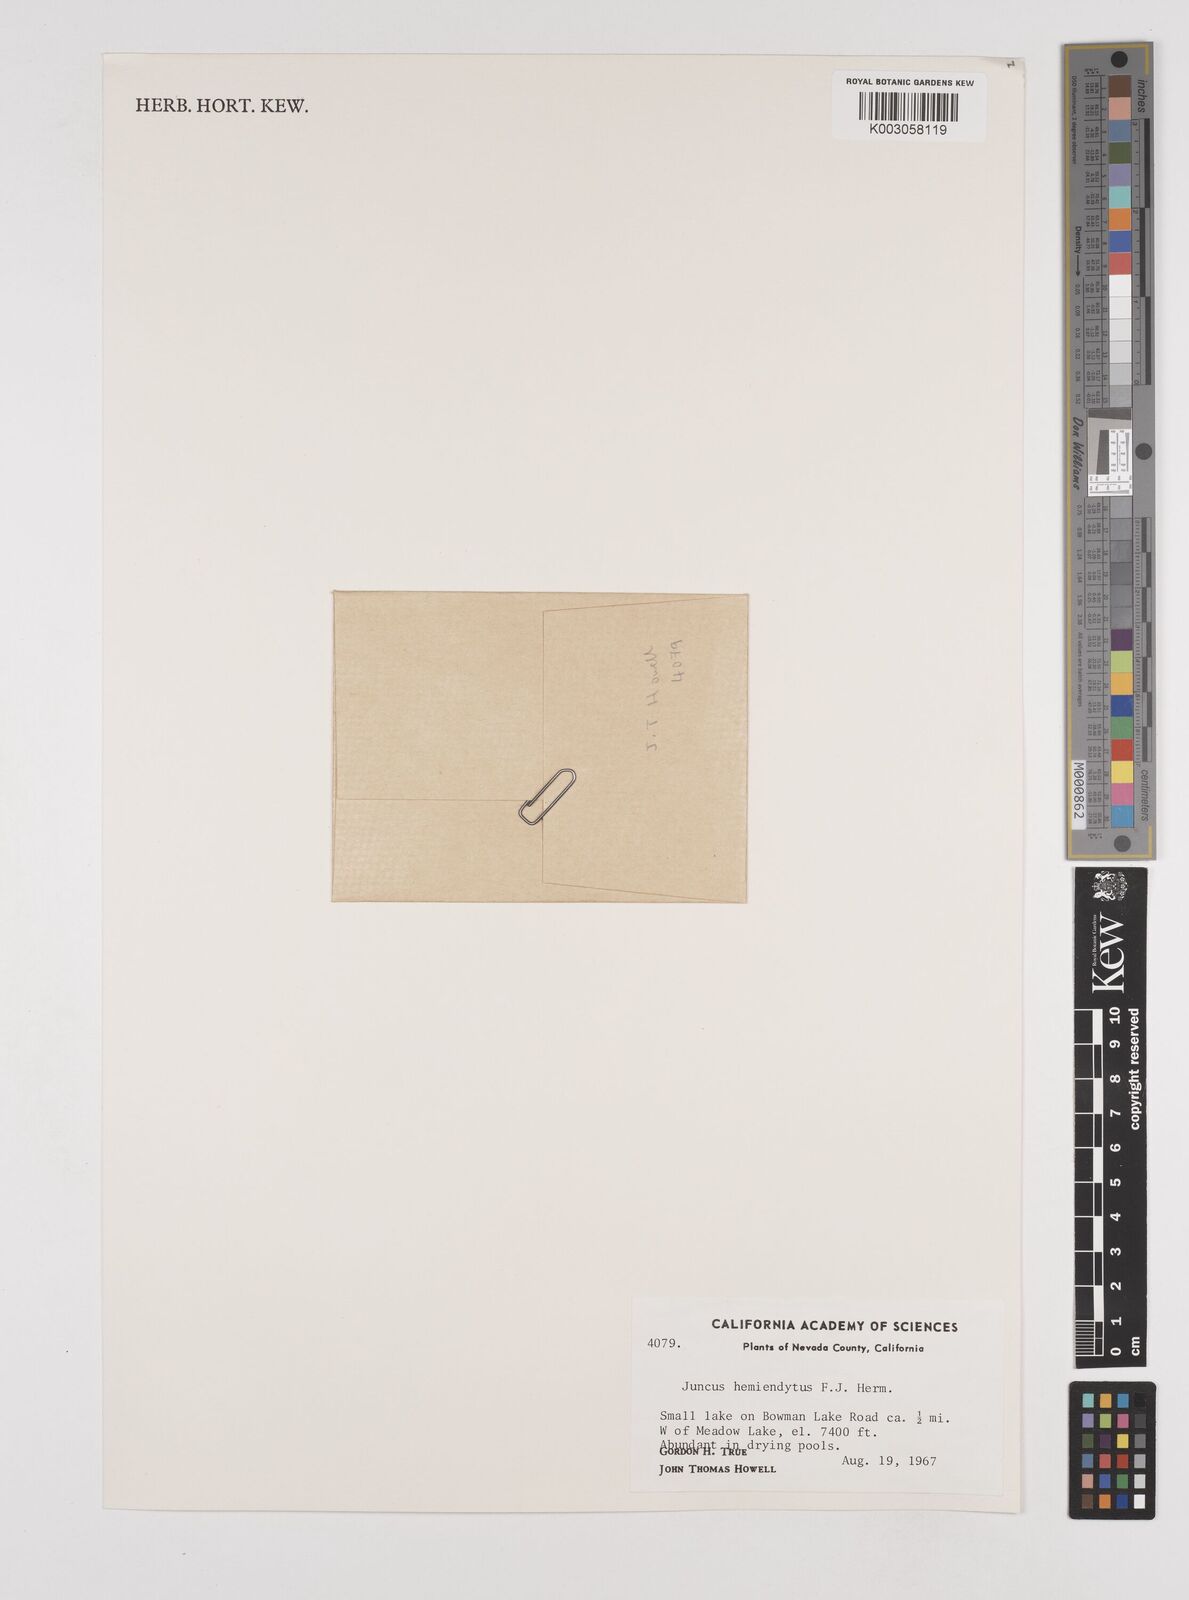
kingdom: Plantae
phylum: Tracheophyta
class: Liliopsida
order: Poales
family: Juncaceae
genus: Juncus
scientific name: Juncus hemiendytus
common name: Hermann's dwarf rush
